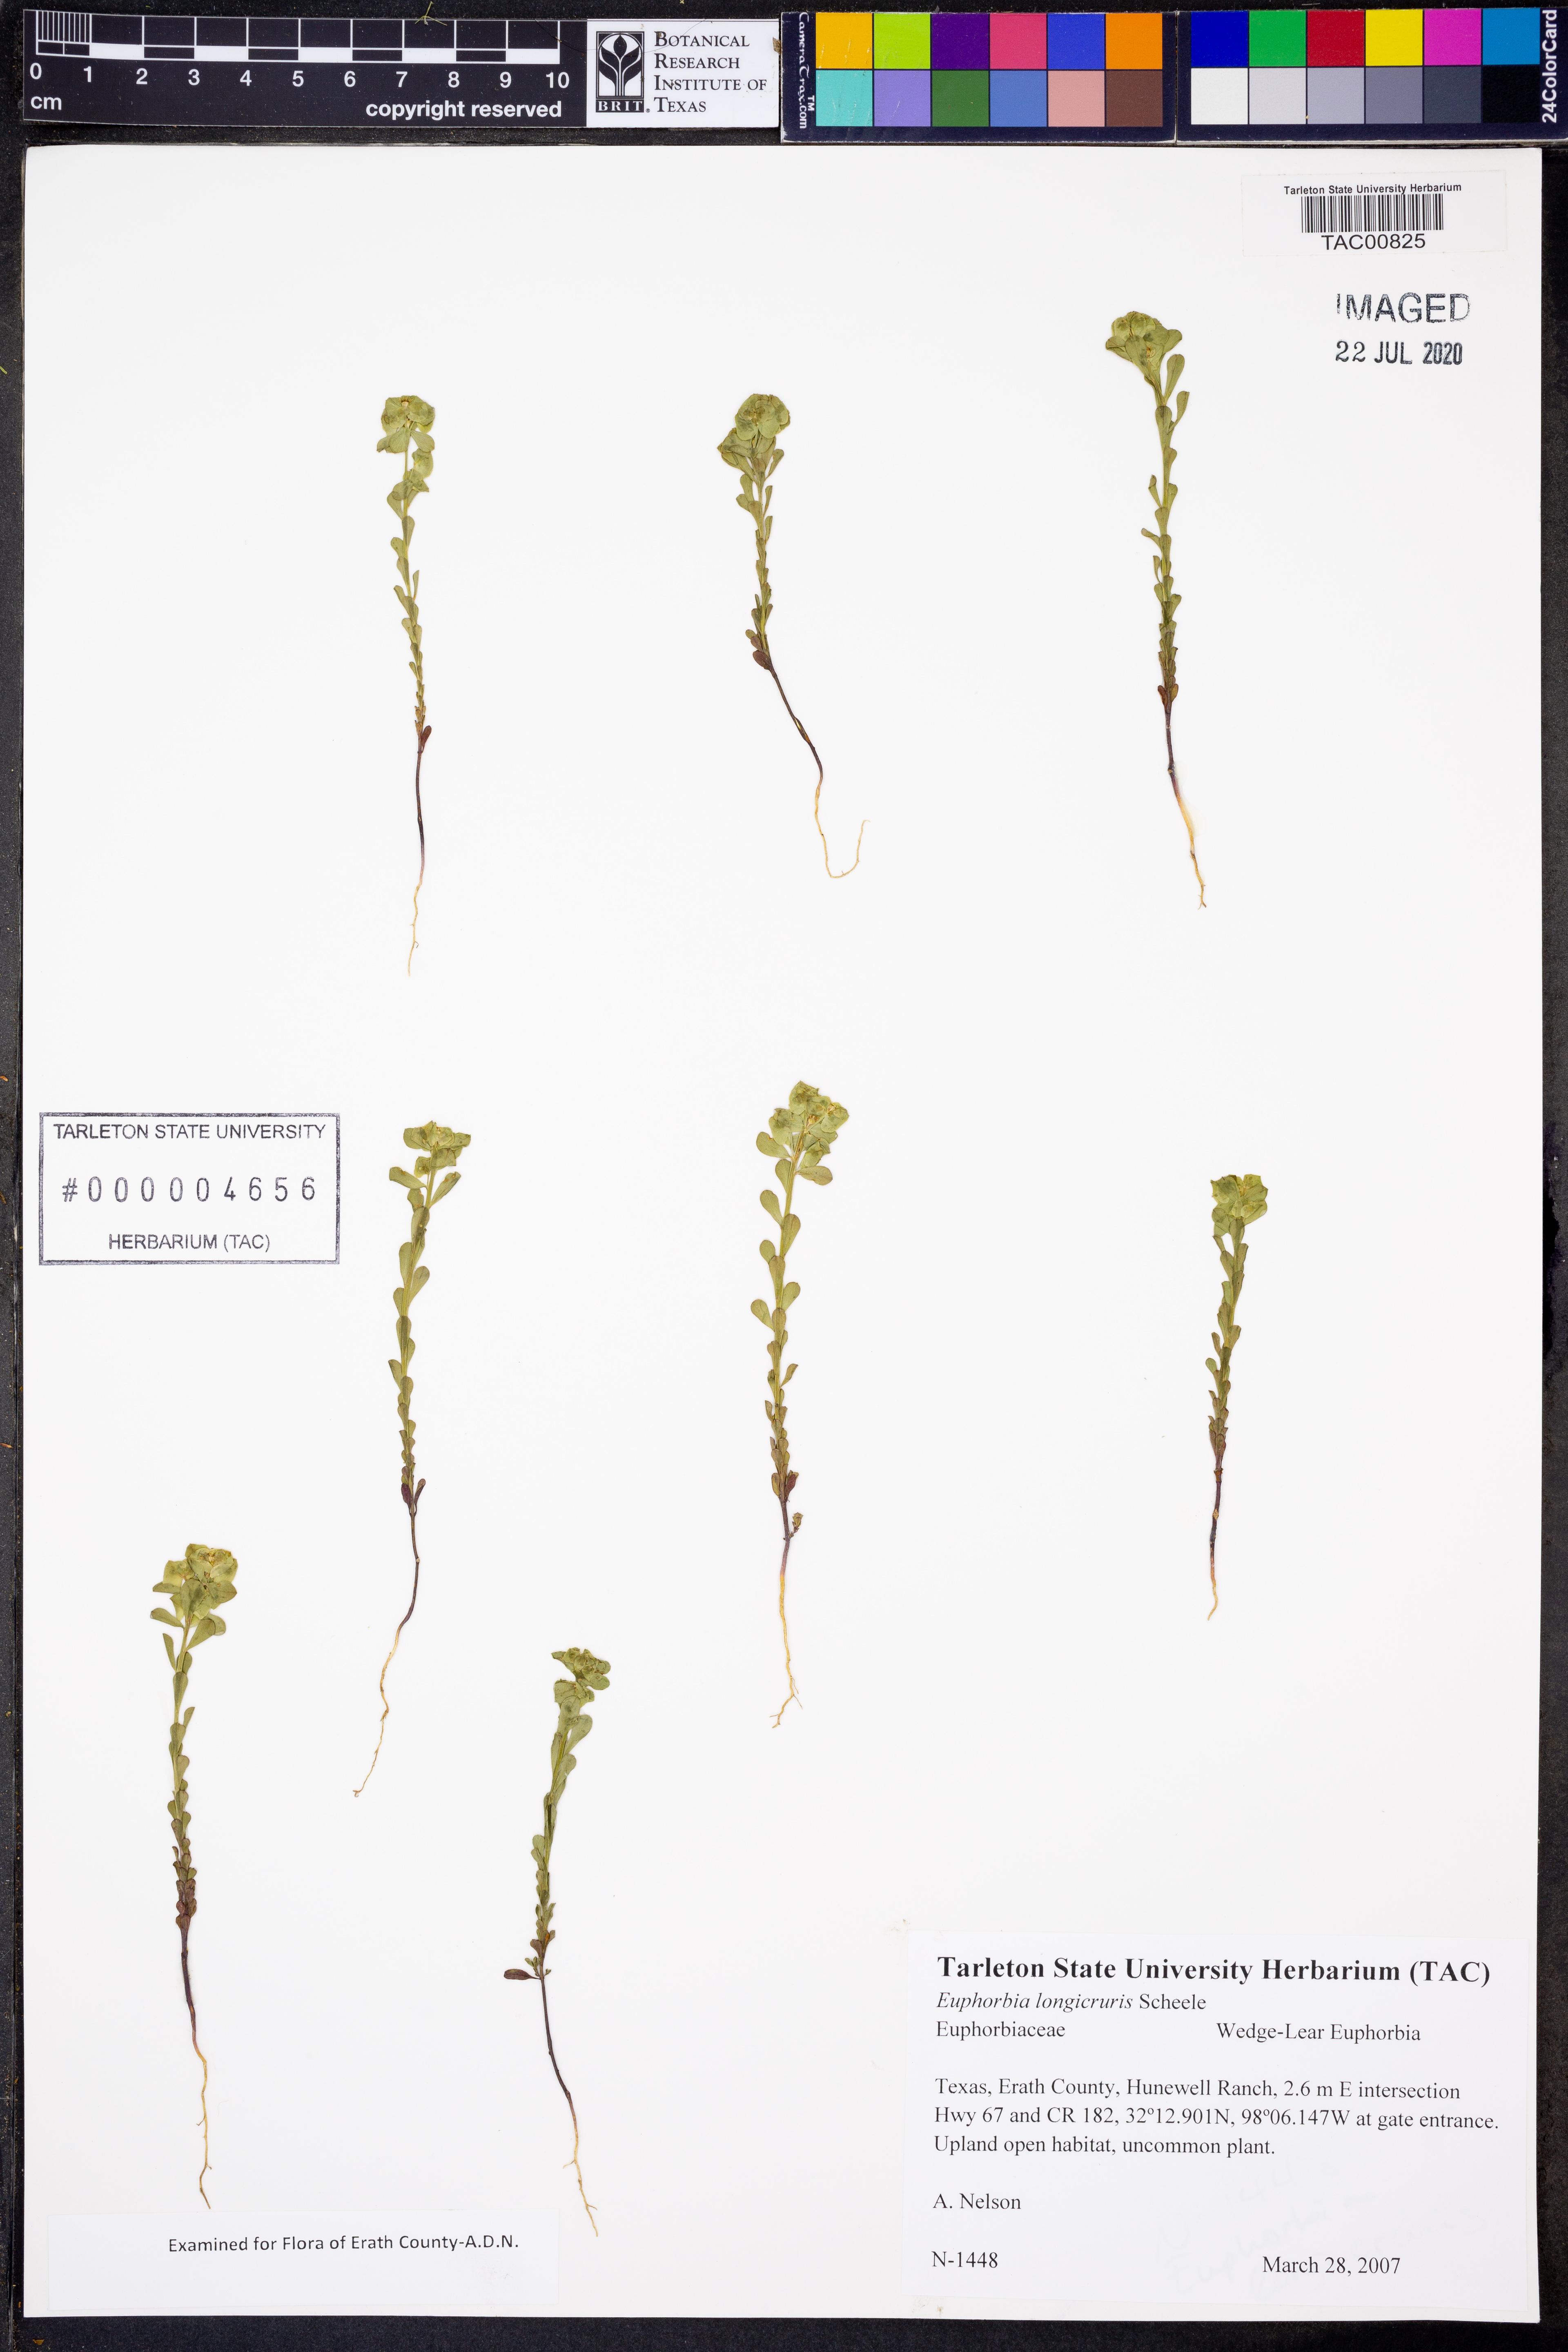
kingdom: Plantae
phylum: Tracheophyta
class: Magnoliopsida
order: Malpighiales
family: Euphorbiaceae
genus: Euphorbia
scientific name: Euphorbia longicruris
